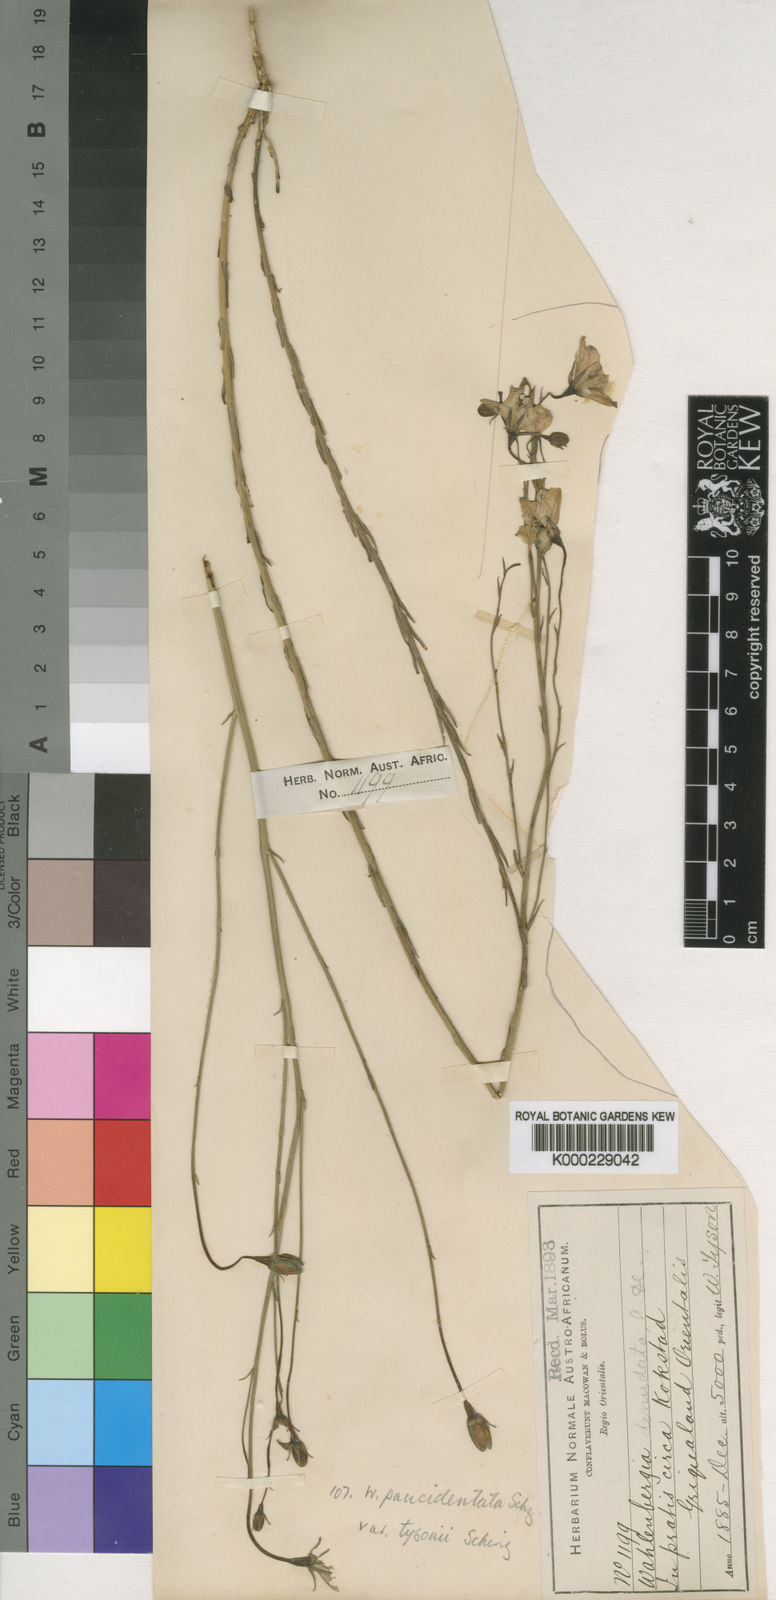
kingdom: Plantae
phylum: Tracheophyta
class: Magnoliopsida
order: Asterales
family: Campanulaceae
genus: Wahlenbergia
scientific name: Wahlenbergia paucidentata
